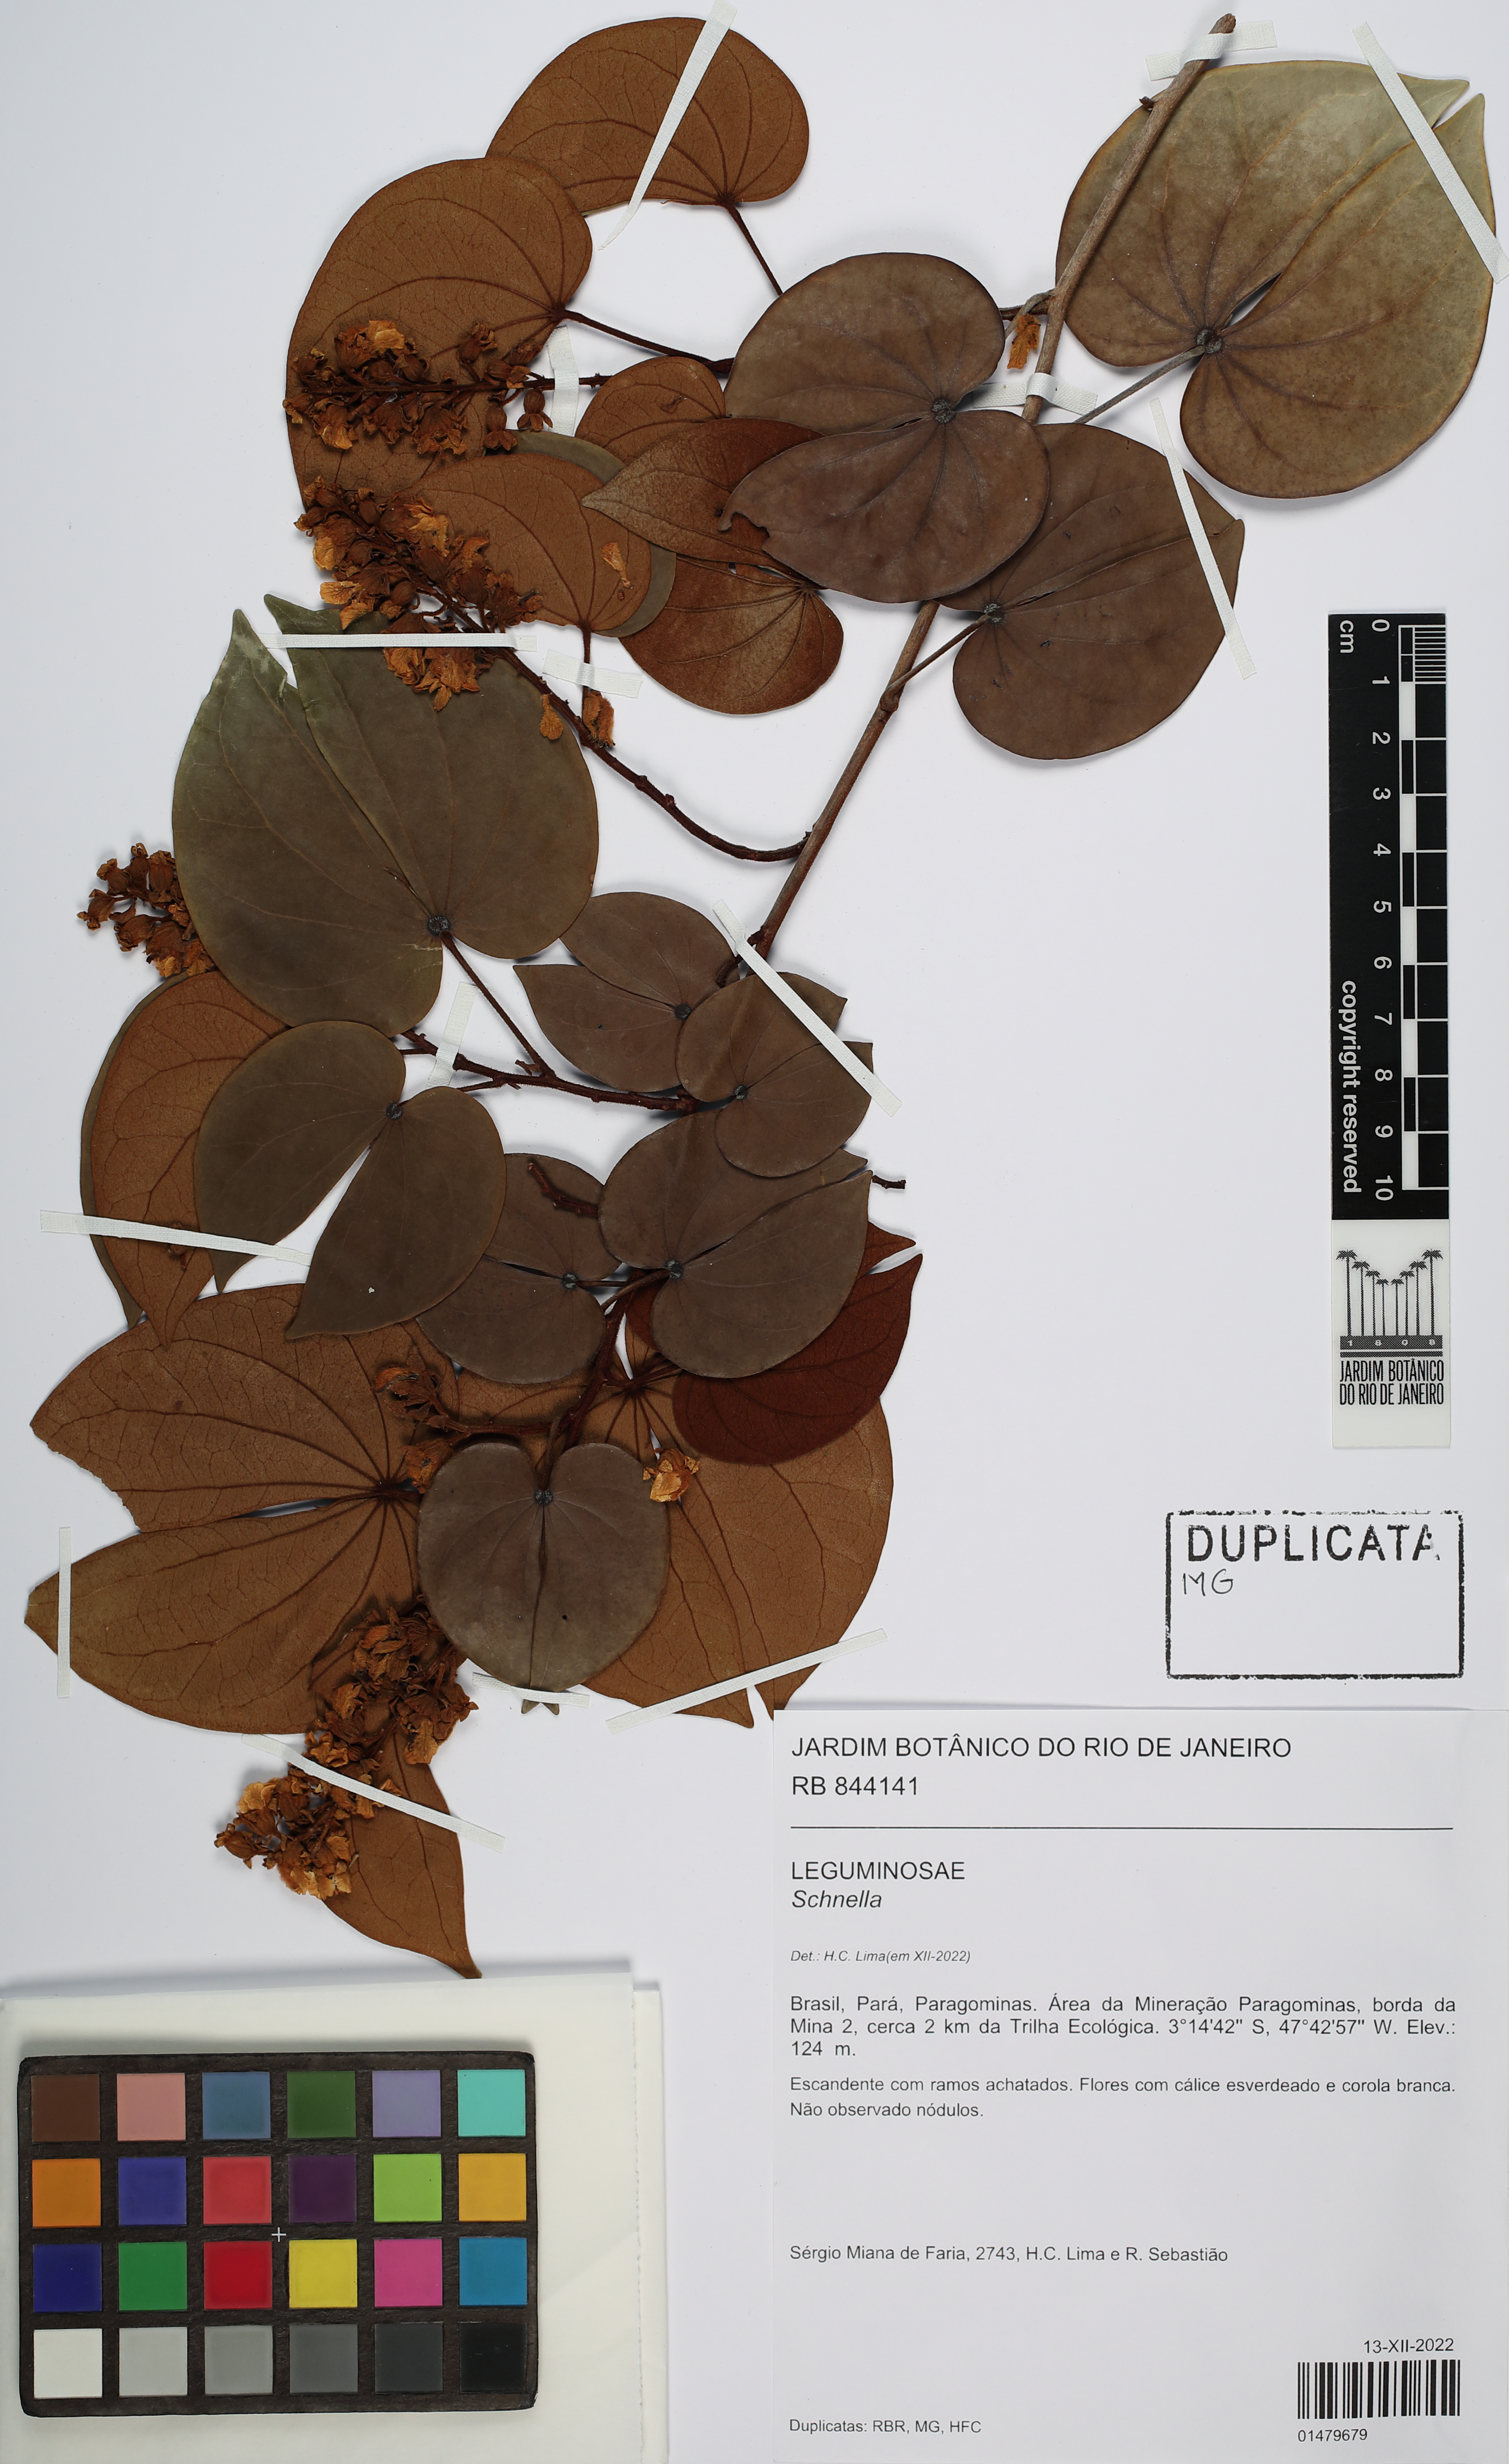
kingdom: Plantae
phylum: Tracheophyta
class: Magnoliopsida
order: Fabales
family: Fabaceae
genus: Schnella
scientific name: Schnella
